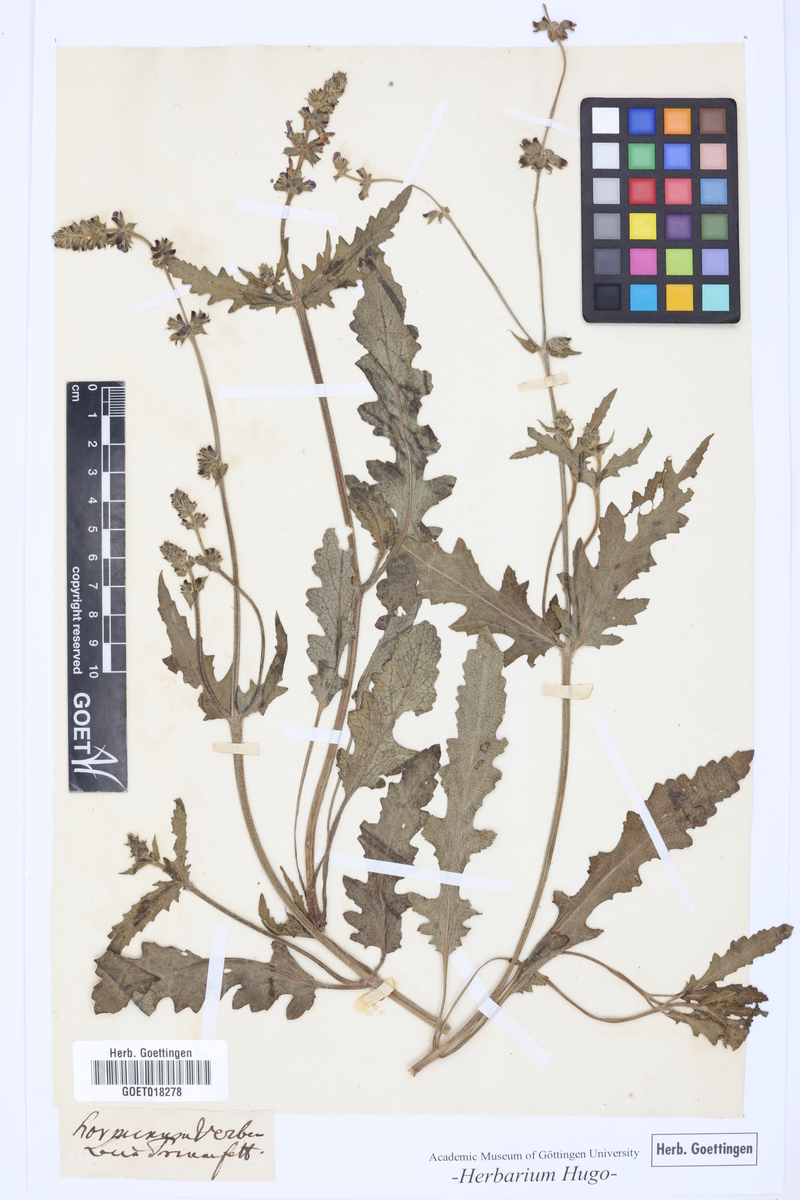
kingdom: Plantae
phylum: Tracheophyta
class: Magnoliopsida
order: Lamiales
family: Lamiaceae
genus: Salvia
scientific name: Salvia verbenaca
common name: Wild clary
